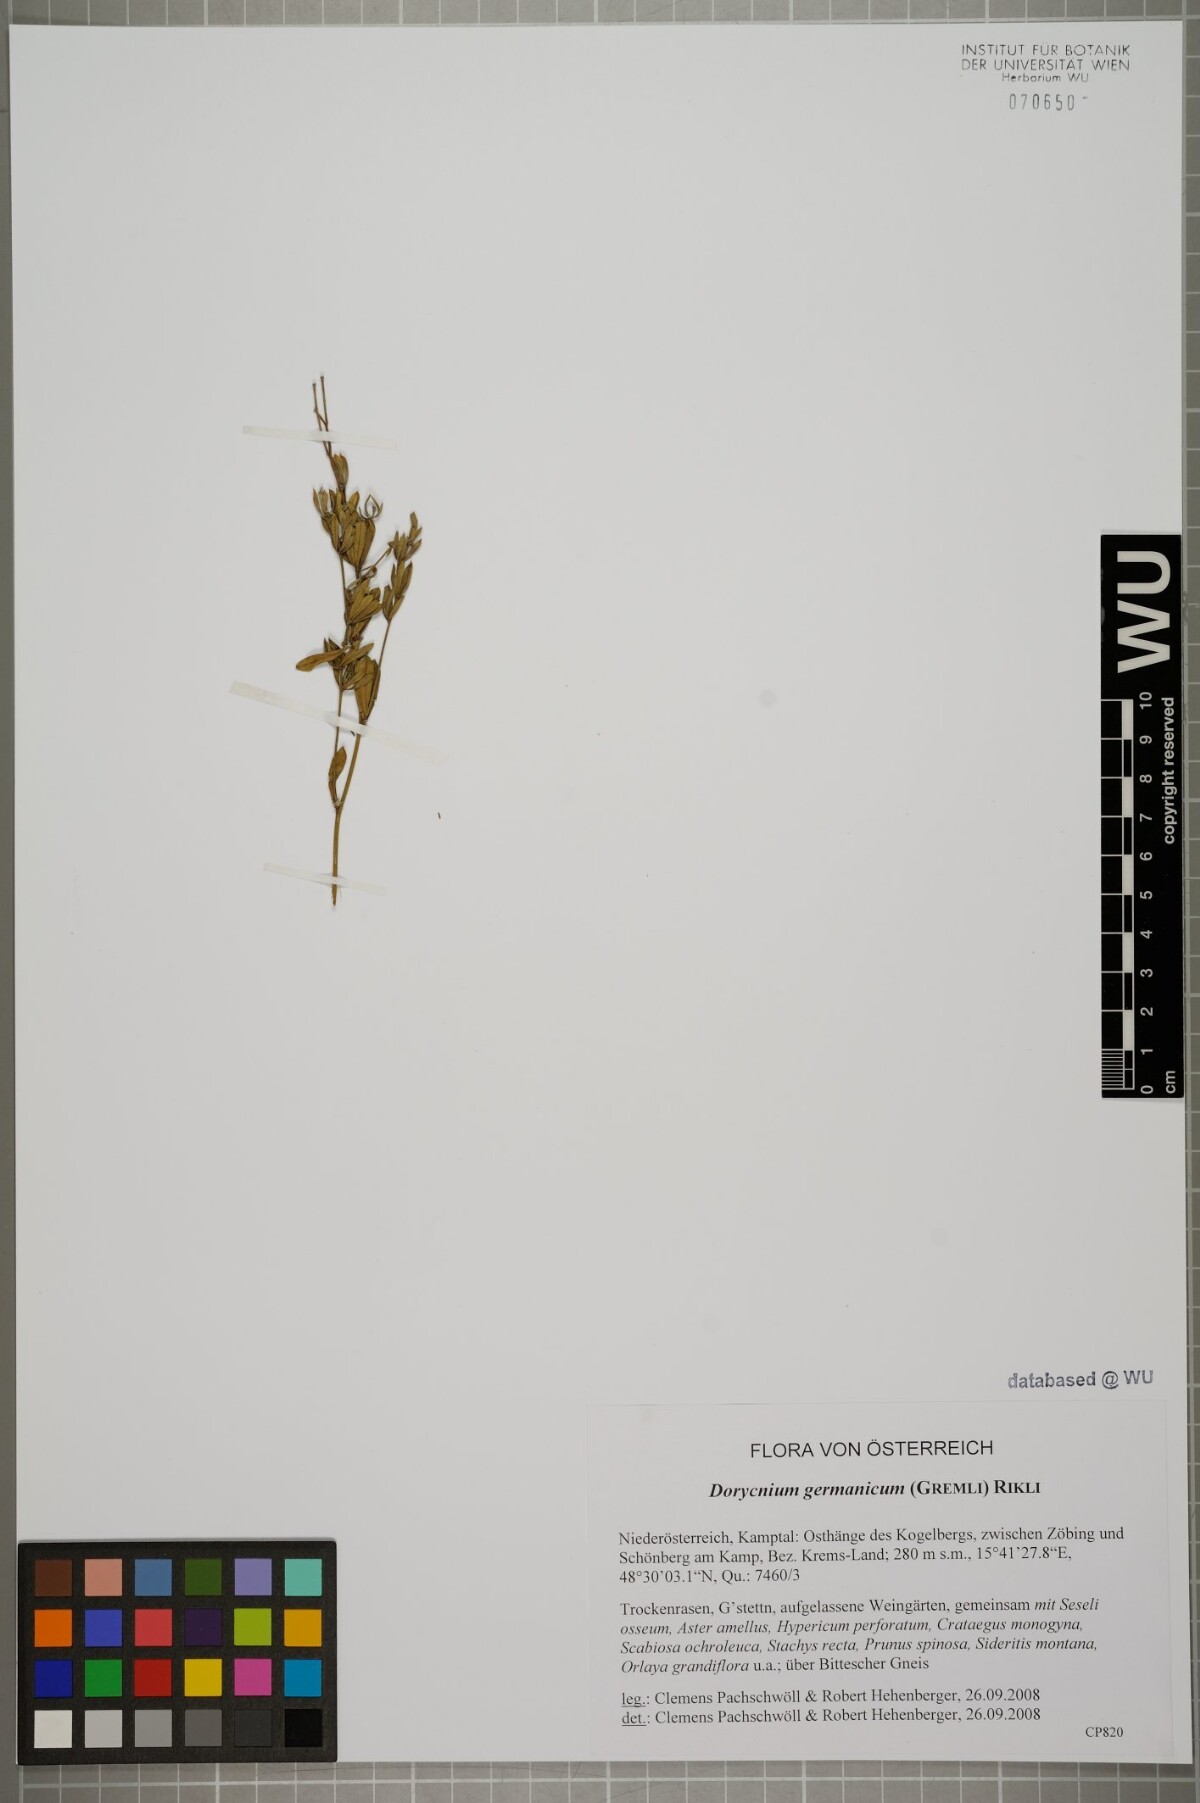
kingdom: Plantae
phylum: Tracheophyta
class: Magnoliopsida
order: Fabales
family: Fabaceae
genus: Lotus
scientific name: Lotus germanicus
